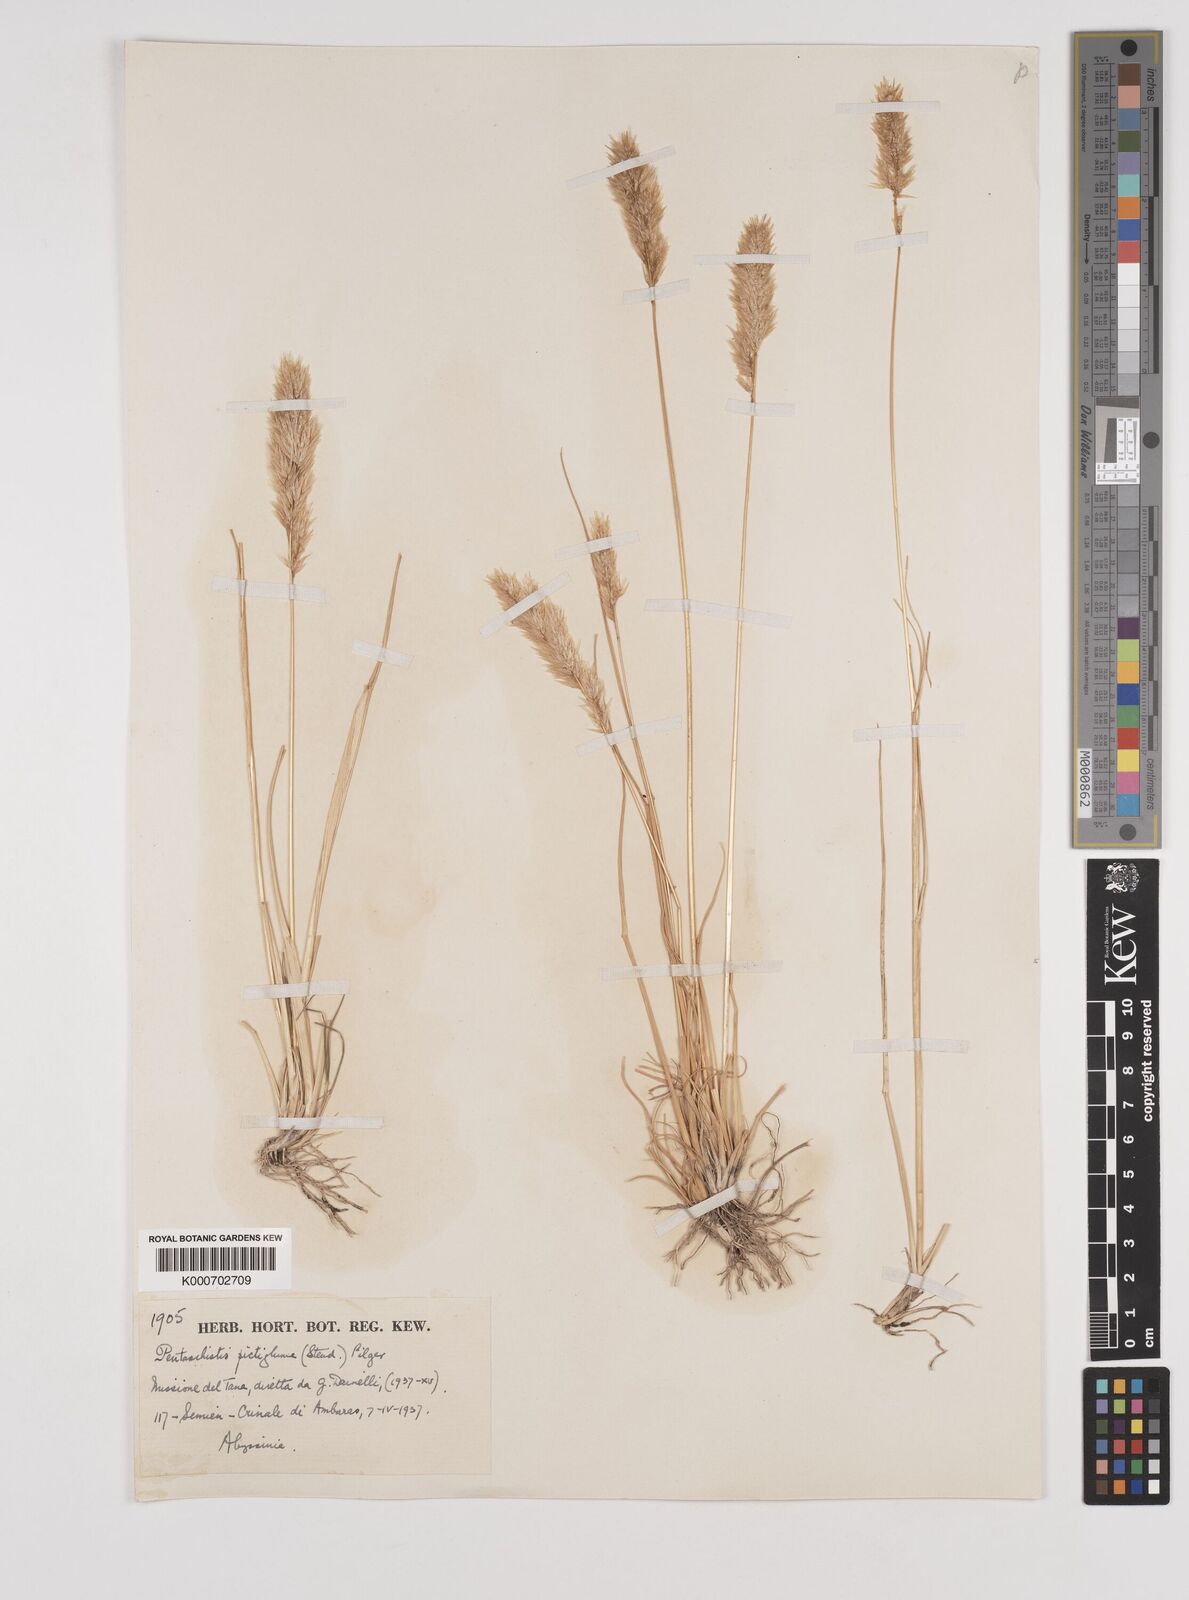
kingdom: Plantae
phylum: Tracheophyta
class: Liliopsida
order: Poales
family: Poaceae
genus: Pentameris
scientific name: Pentameris pictigluma
